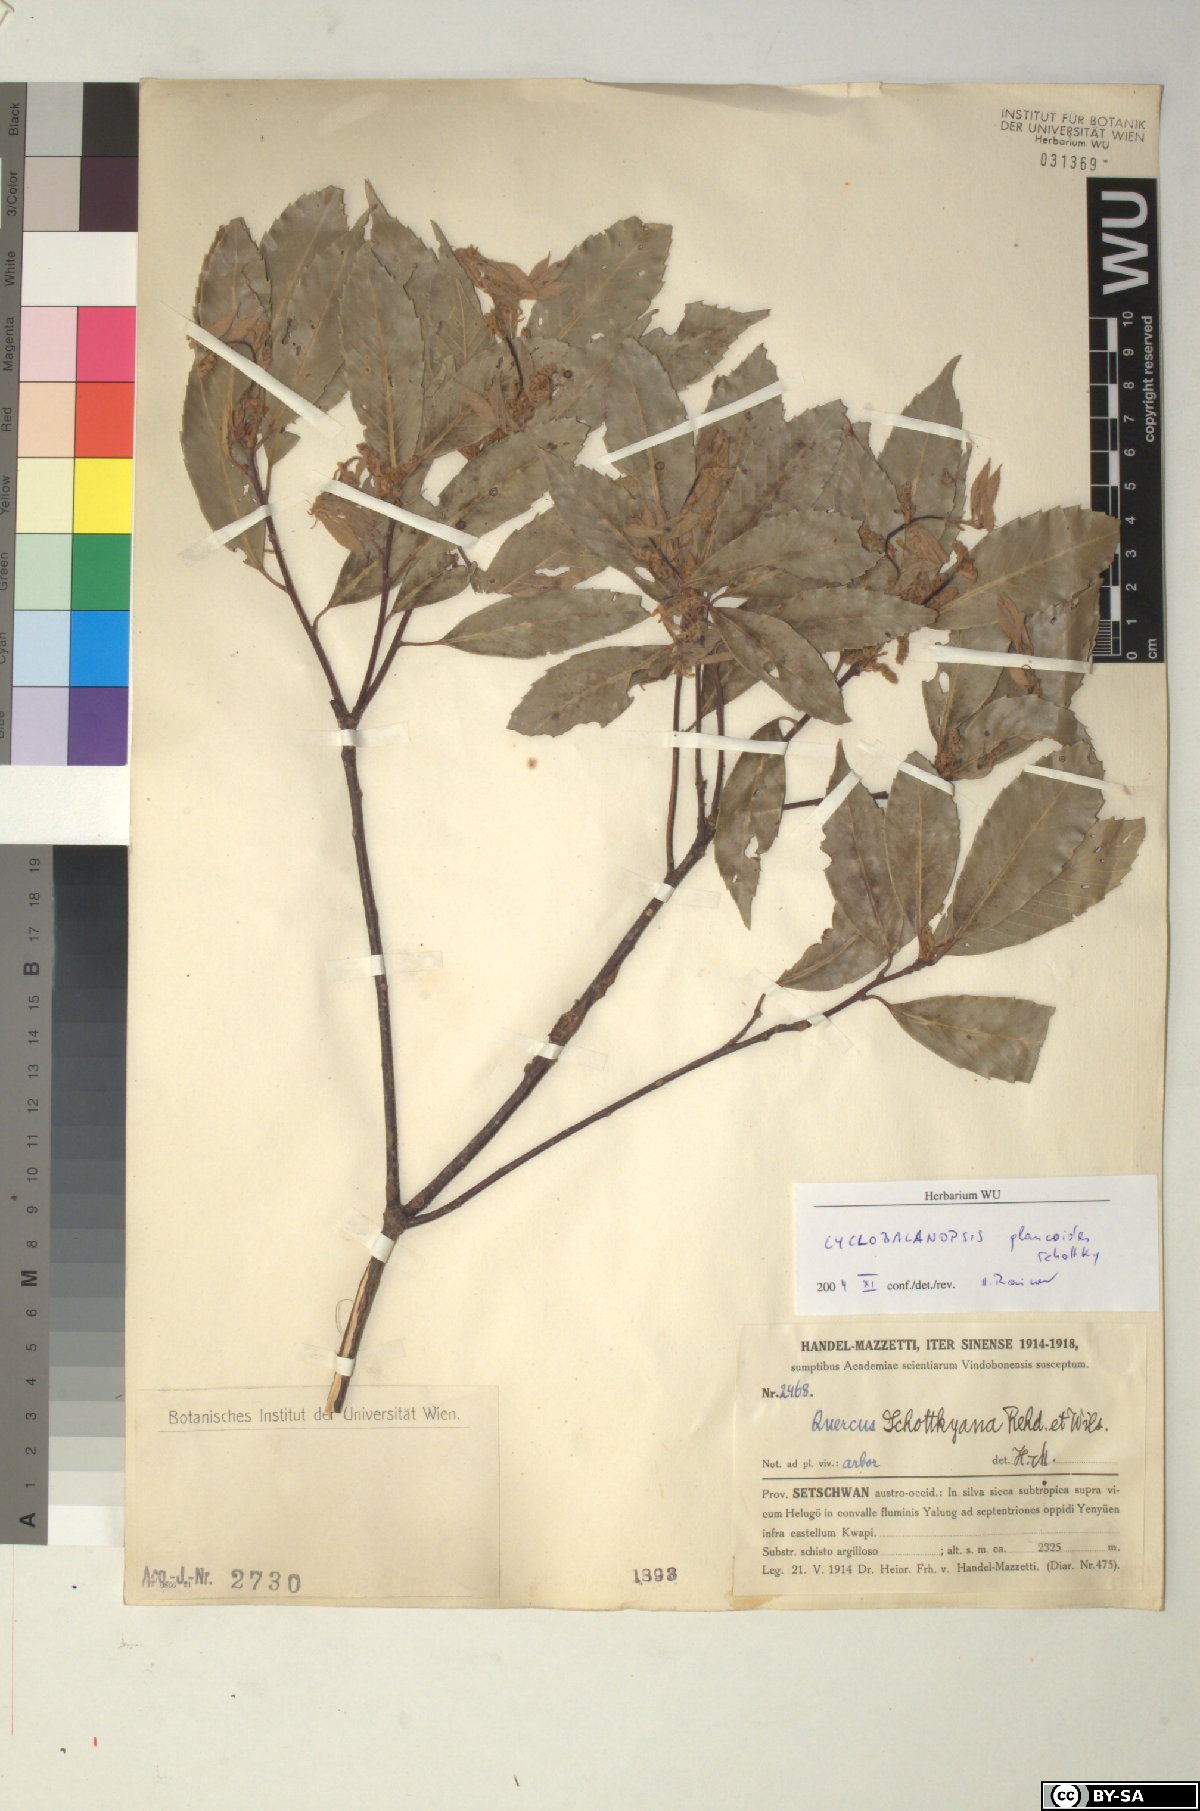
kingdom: Plantae
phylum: Tracheophyta
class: Magnoliopsida
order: Fagales
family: Fagaceae
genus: Quercus
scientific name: Quercus schottkyana
